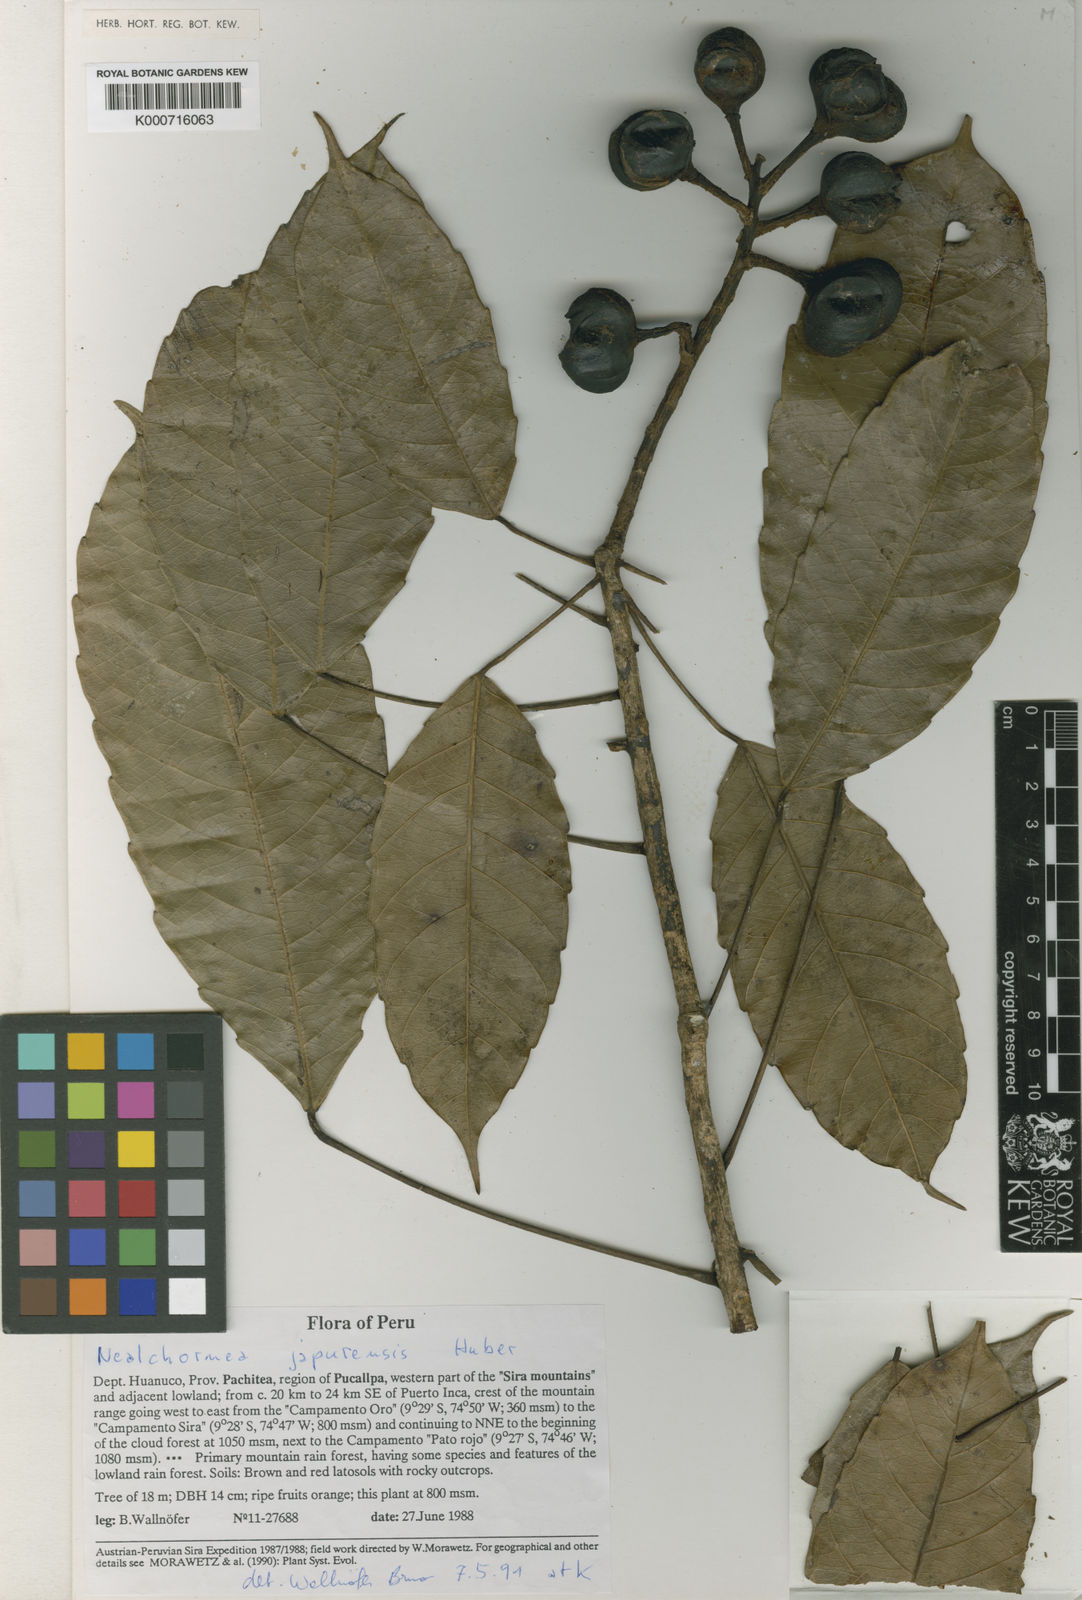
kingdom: Plantae
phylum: Tracheophyta
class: Magnoliopsida
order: Malpighiales
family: Euphorbiaceae
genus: Nealchornea
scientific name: Nealchornea yapurensis
